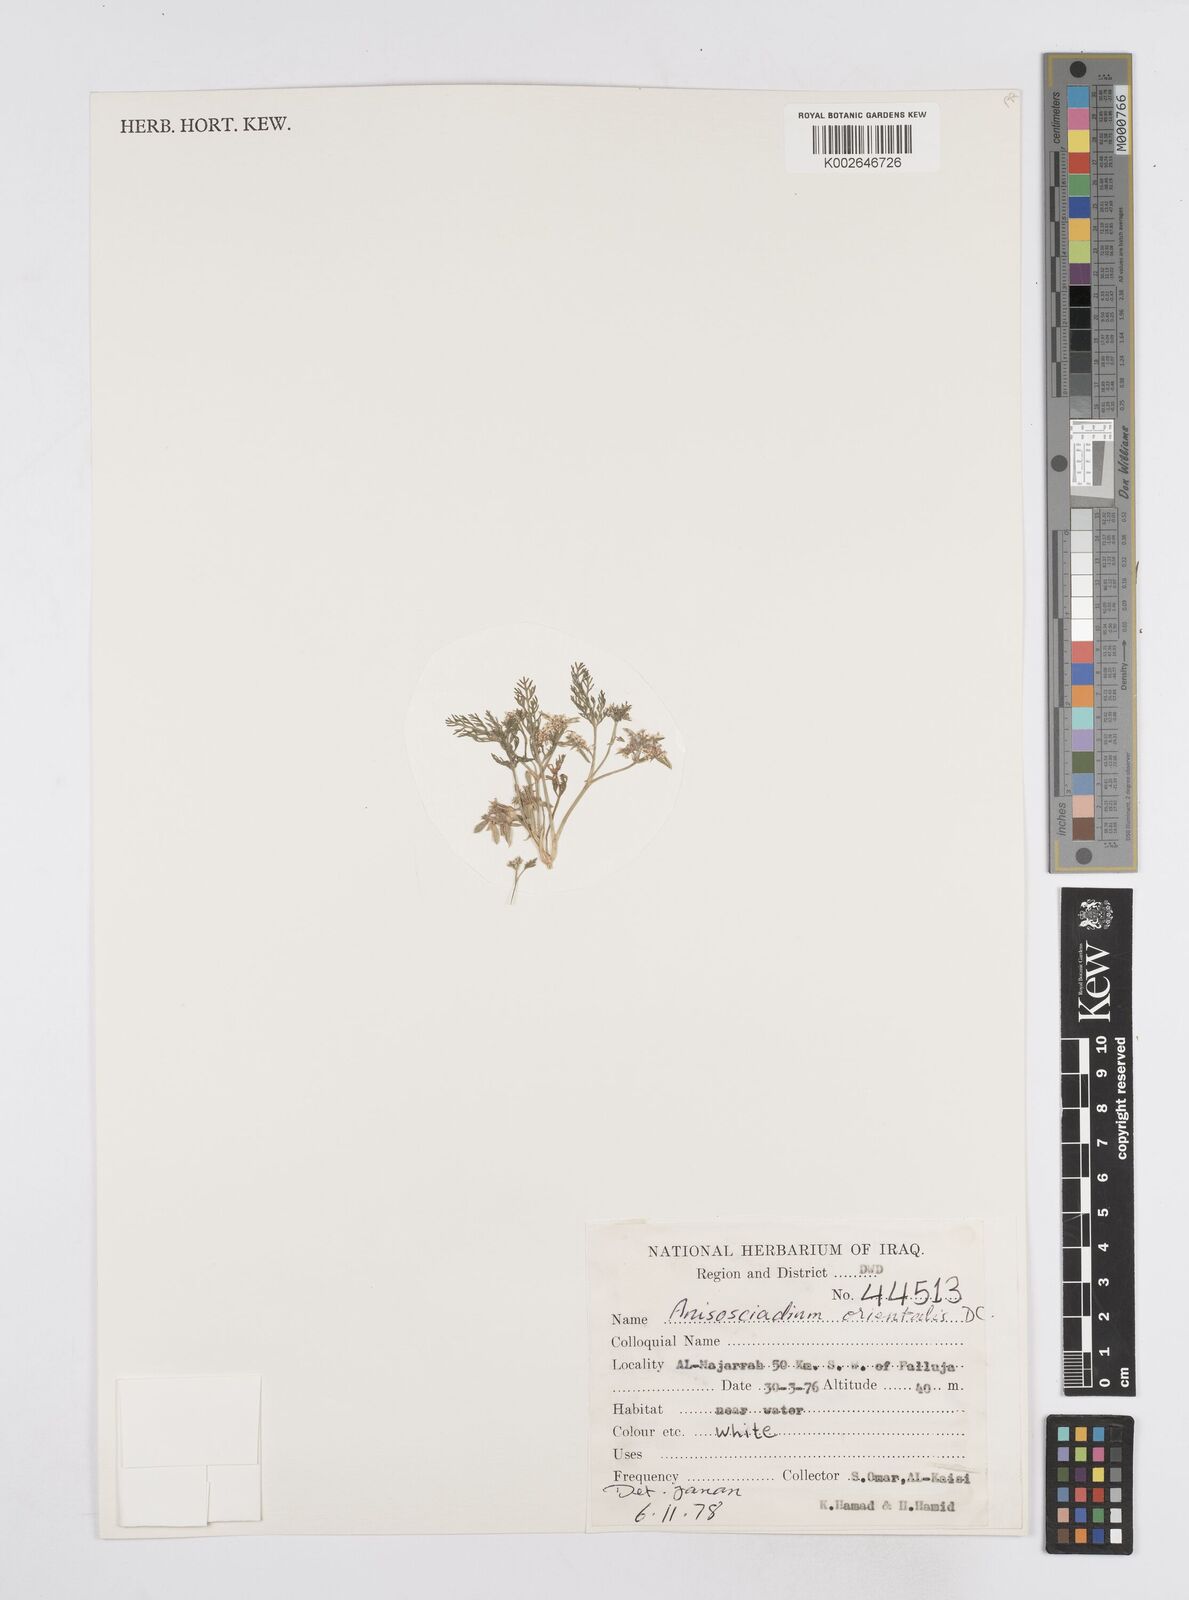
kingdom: Plantae
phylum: Tracheophyta
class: Magnoliopsida
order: Apiales
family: Apiaceae
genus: Anisosciadium
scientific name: Anisosciadium orientale
